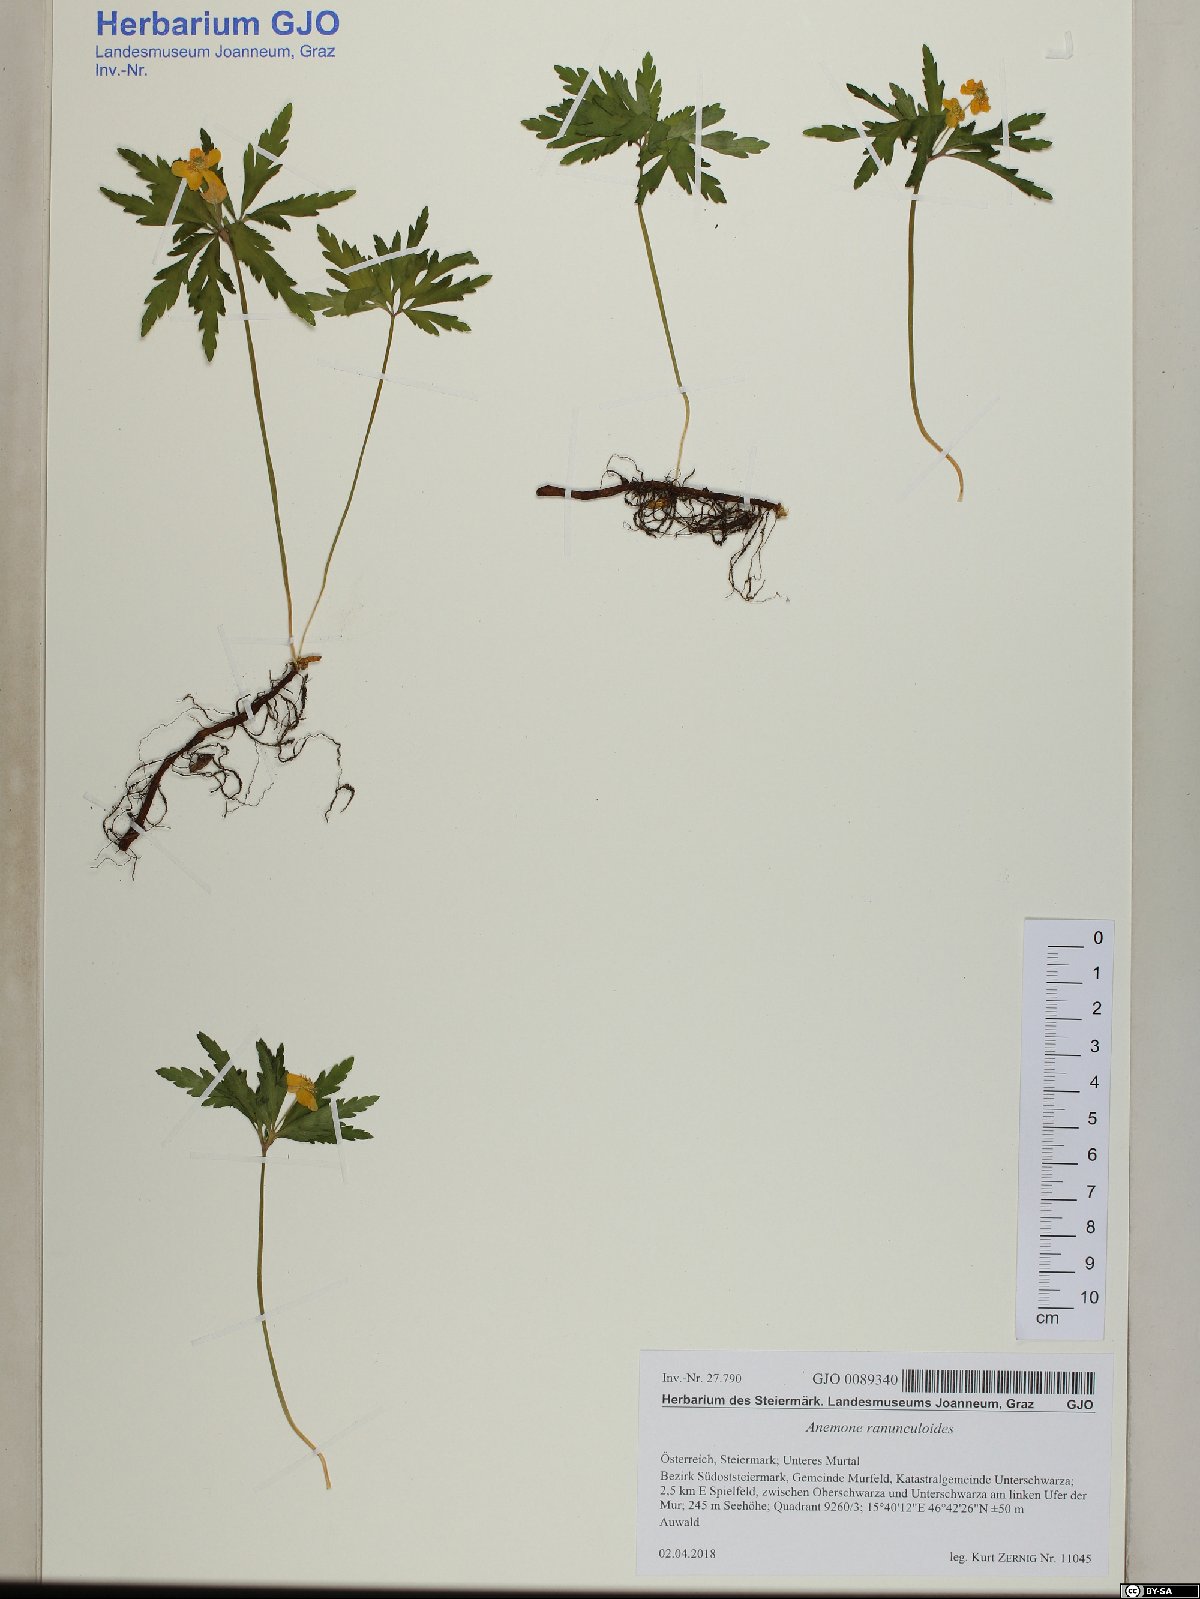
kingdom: Plantae
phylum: Tracheophyta
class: Magnoliopsida
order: Ranunculales
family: Ranunculaceae
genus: Anemone
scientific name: Anemone ranunculoides
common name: Yellow anemone
